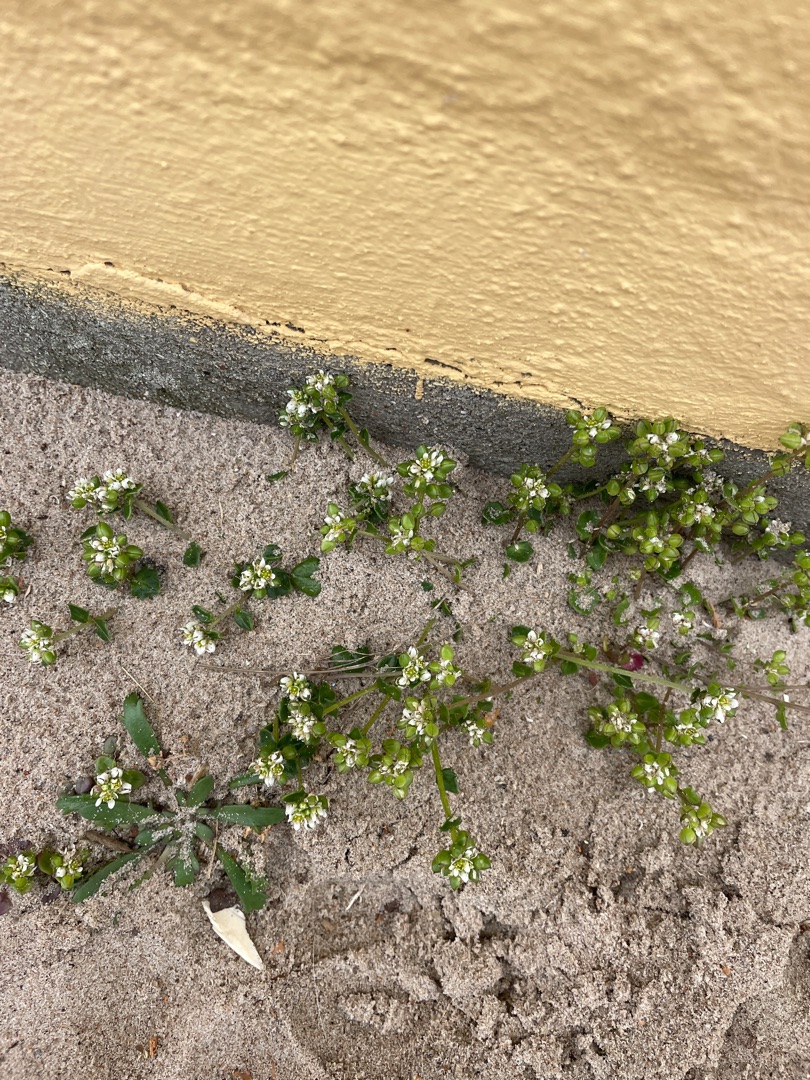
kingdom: Plantae
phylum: Tracheophyta
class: Magnoliopsida
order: Brassicales
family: Brassicaceae
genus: Cochlearia
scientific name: Cochlearia danica
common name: Dansk kokleare
